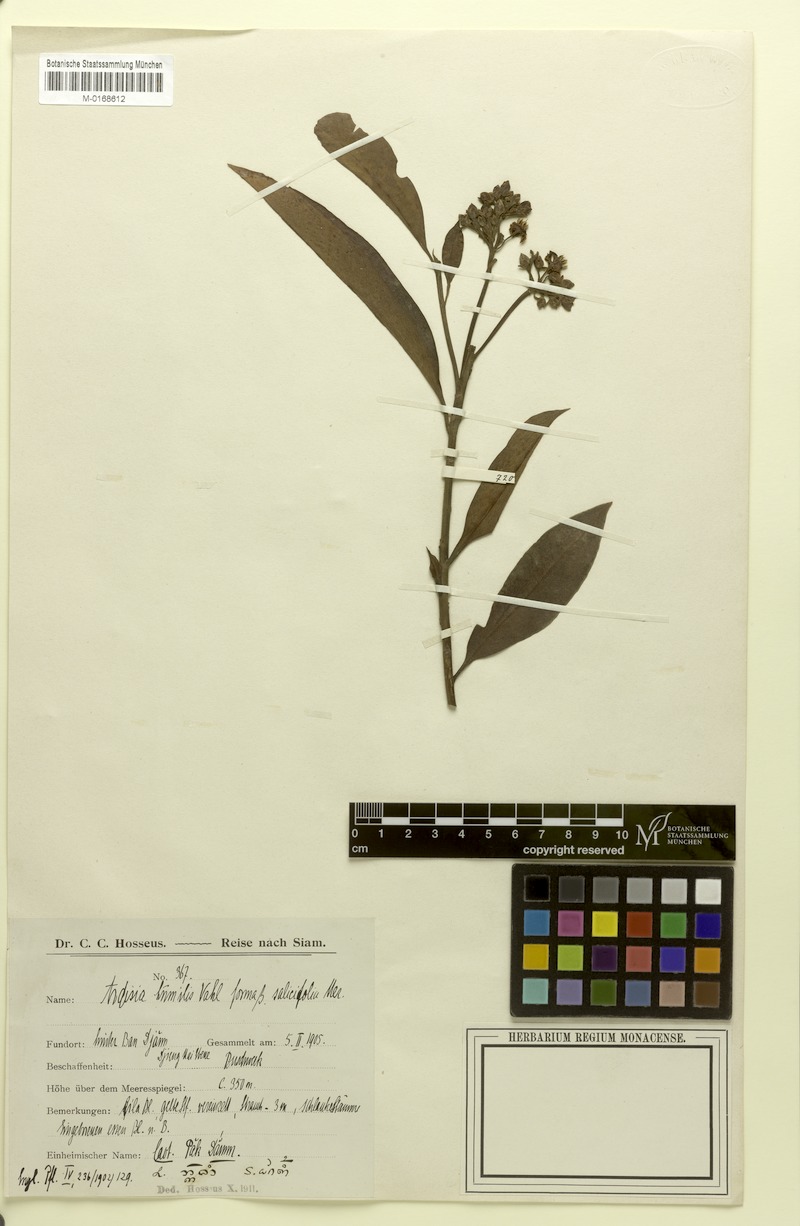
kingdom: Plantae
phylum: Tracheophyta
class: Magnoliopsida
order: Ericales
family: Primulaceae
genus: Ardisia
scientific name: Ardisia humilis
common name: Low shoebutton
